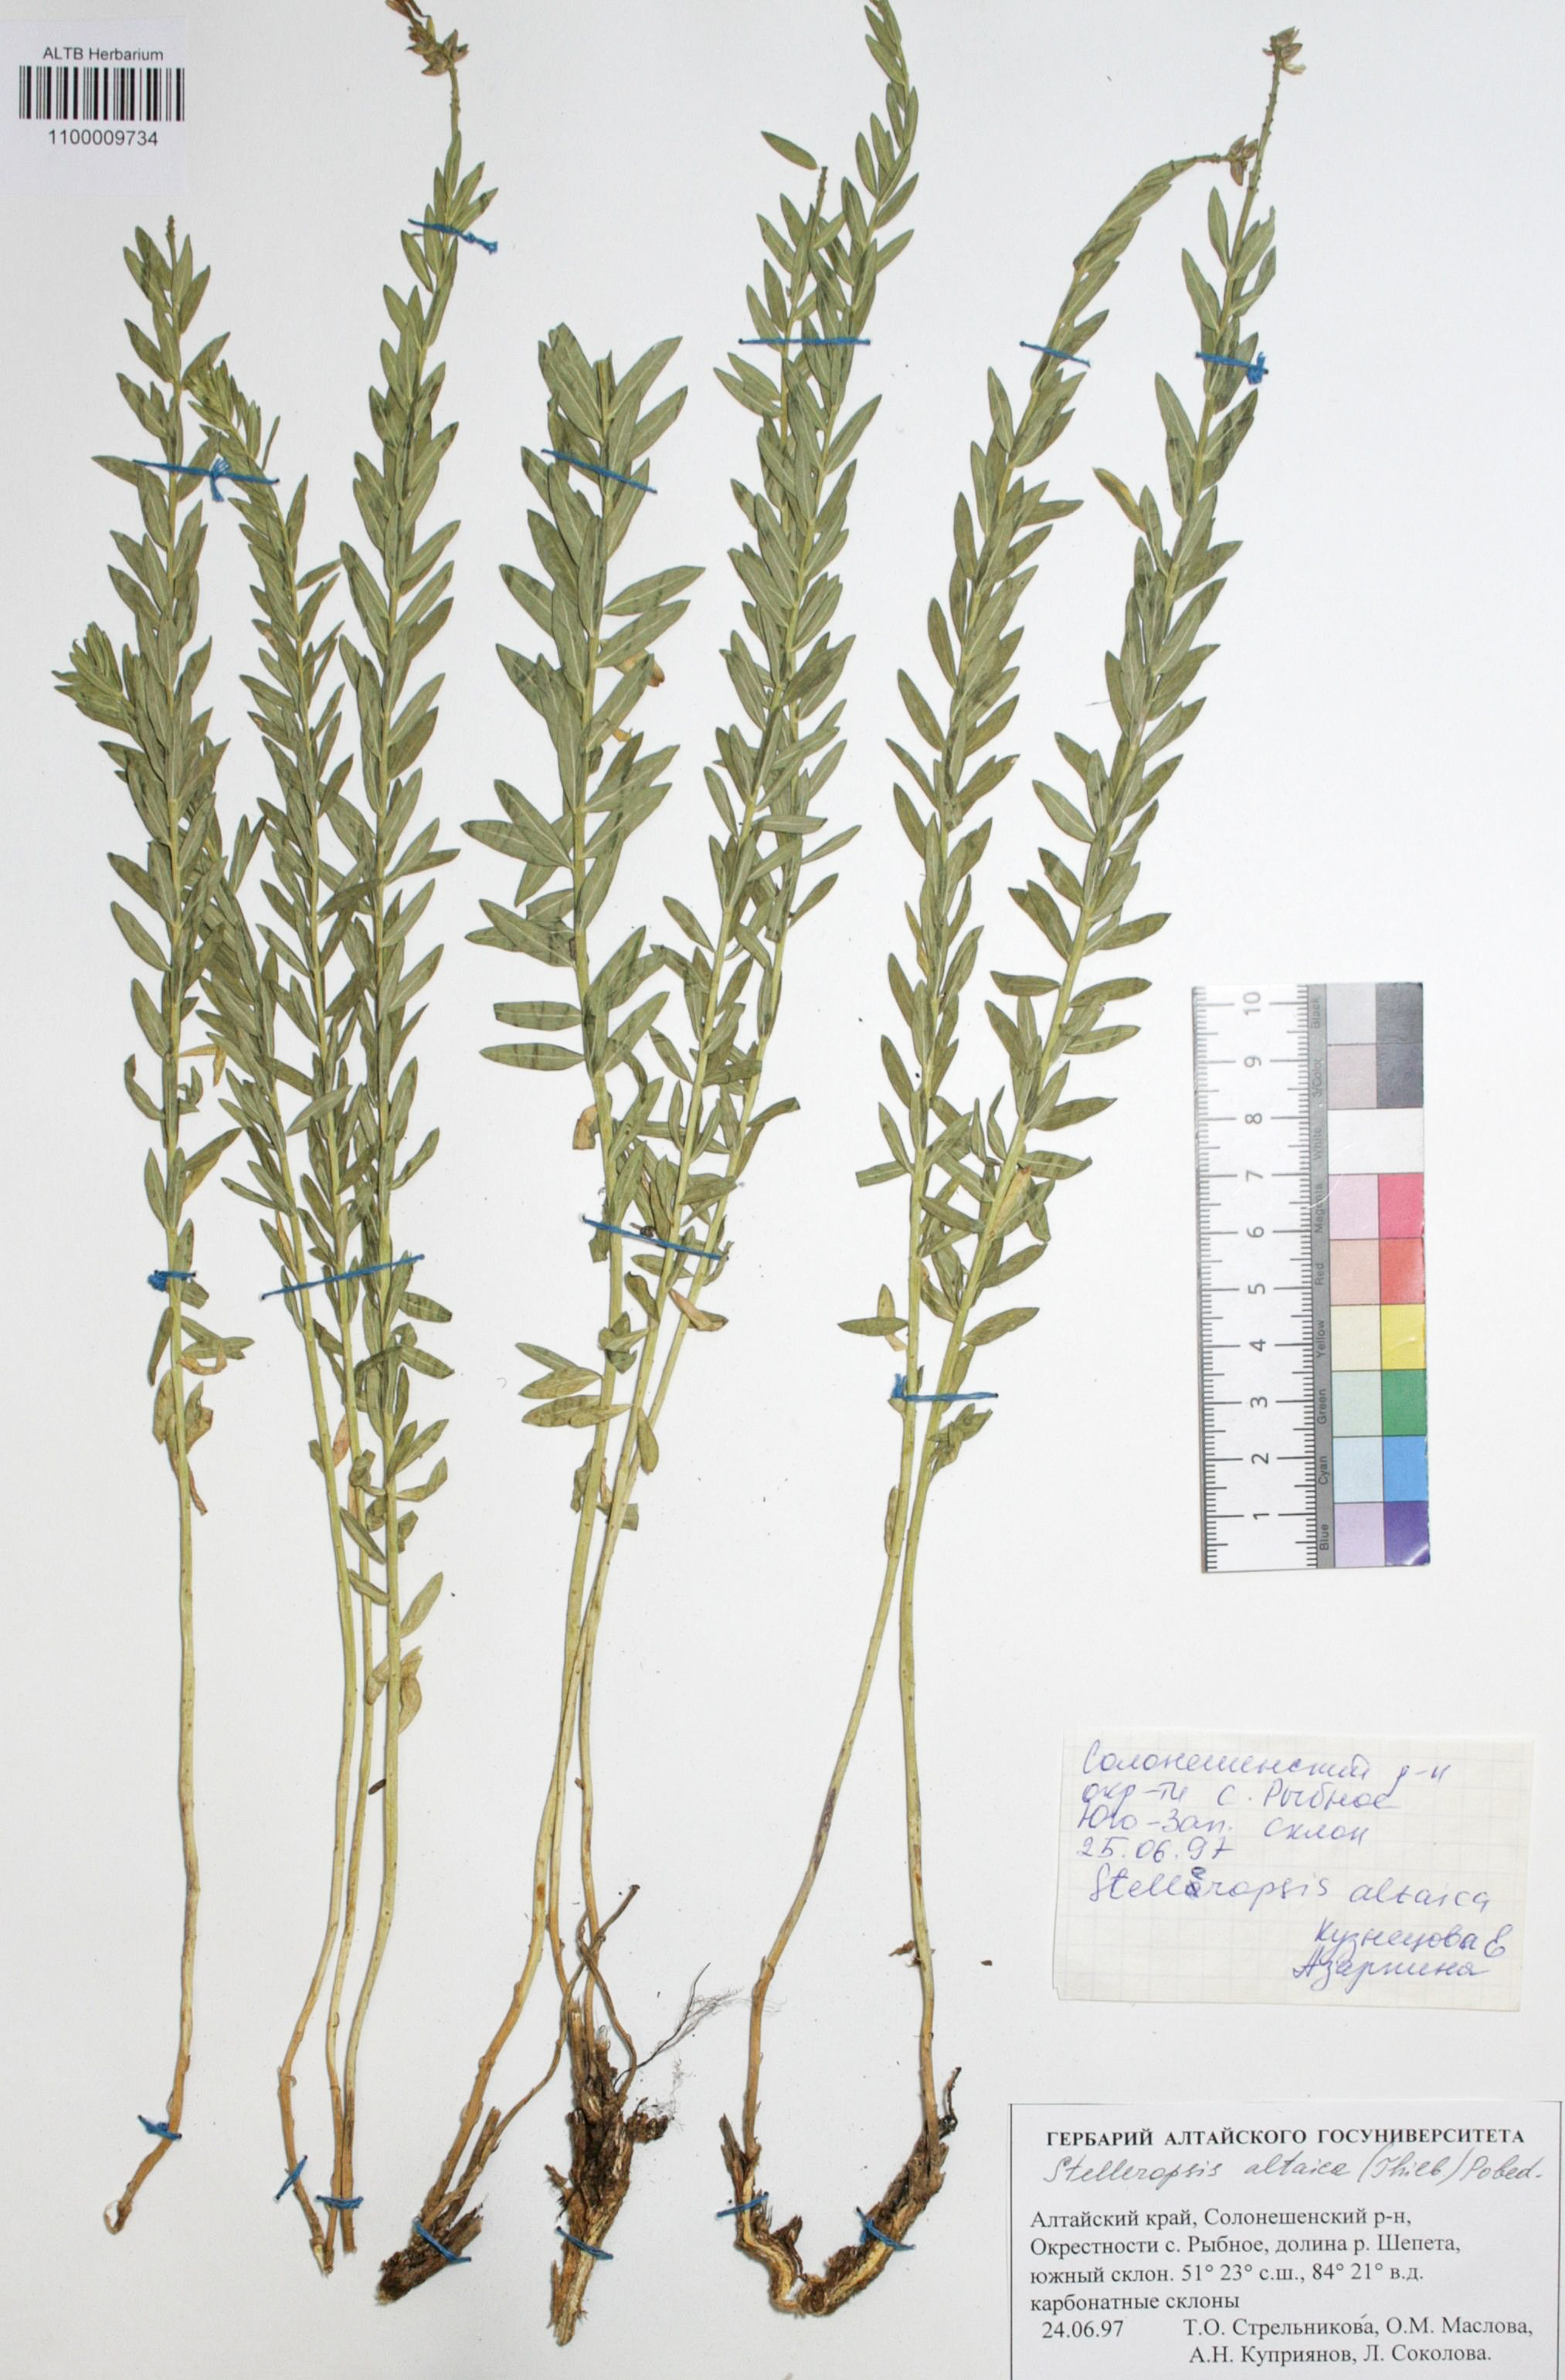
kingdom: Plantae
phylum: Tracheophyta
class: Magnoliopsida
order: Malvales
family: Thymelaeaceae
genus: Diarthron
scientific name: Diarthron altaicum
